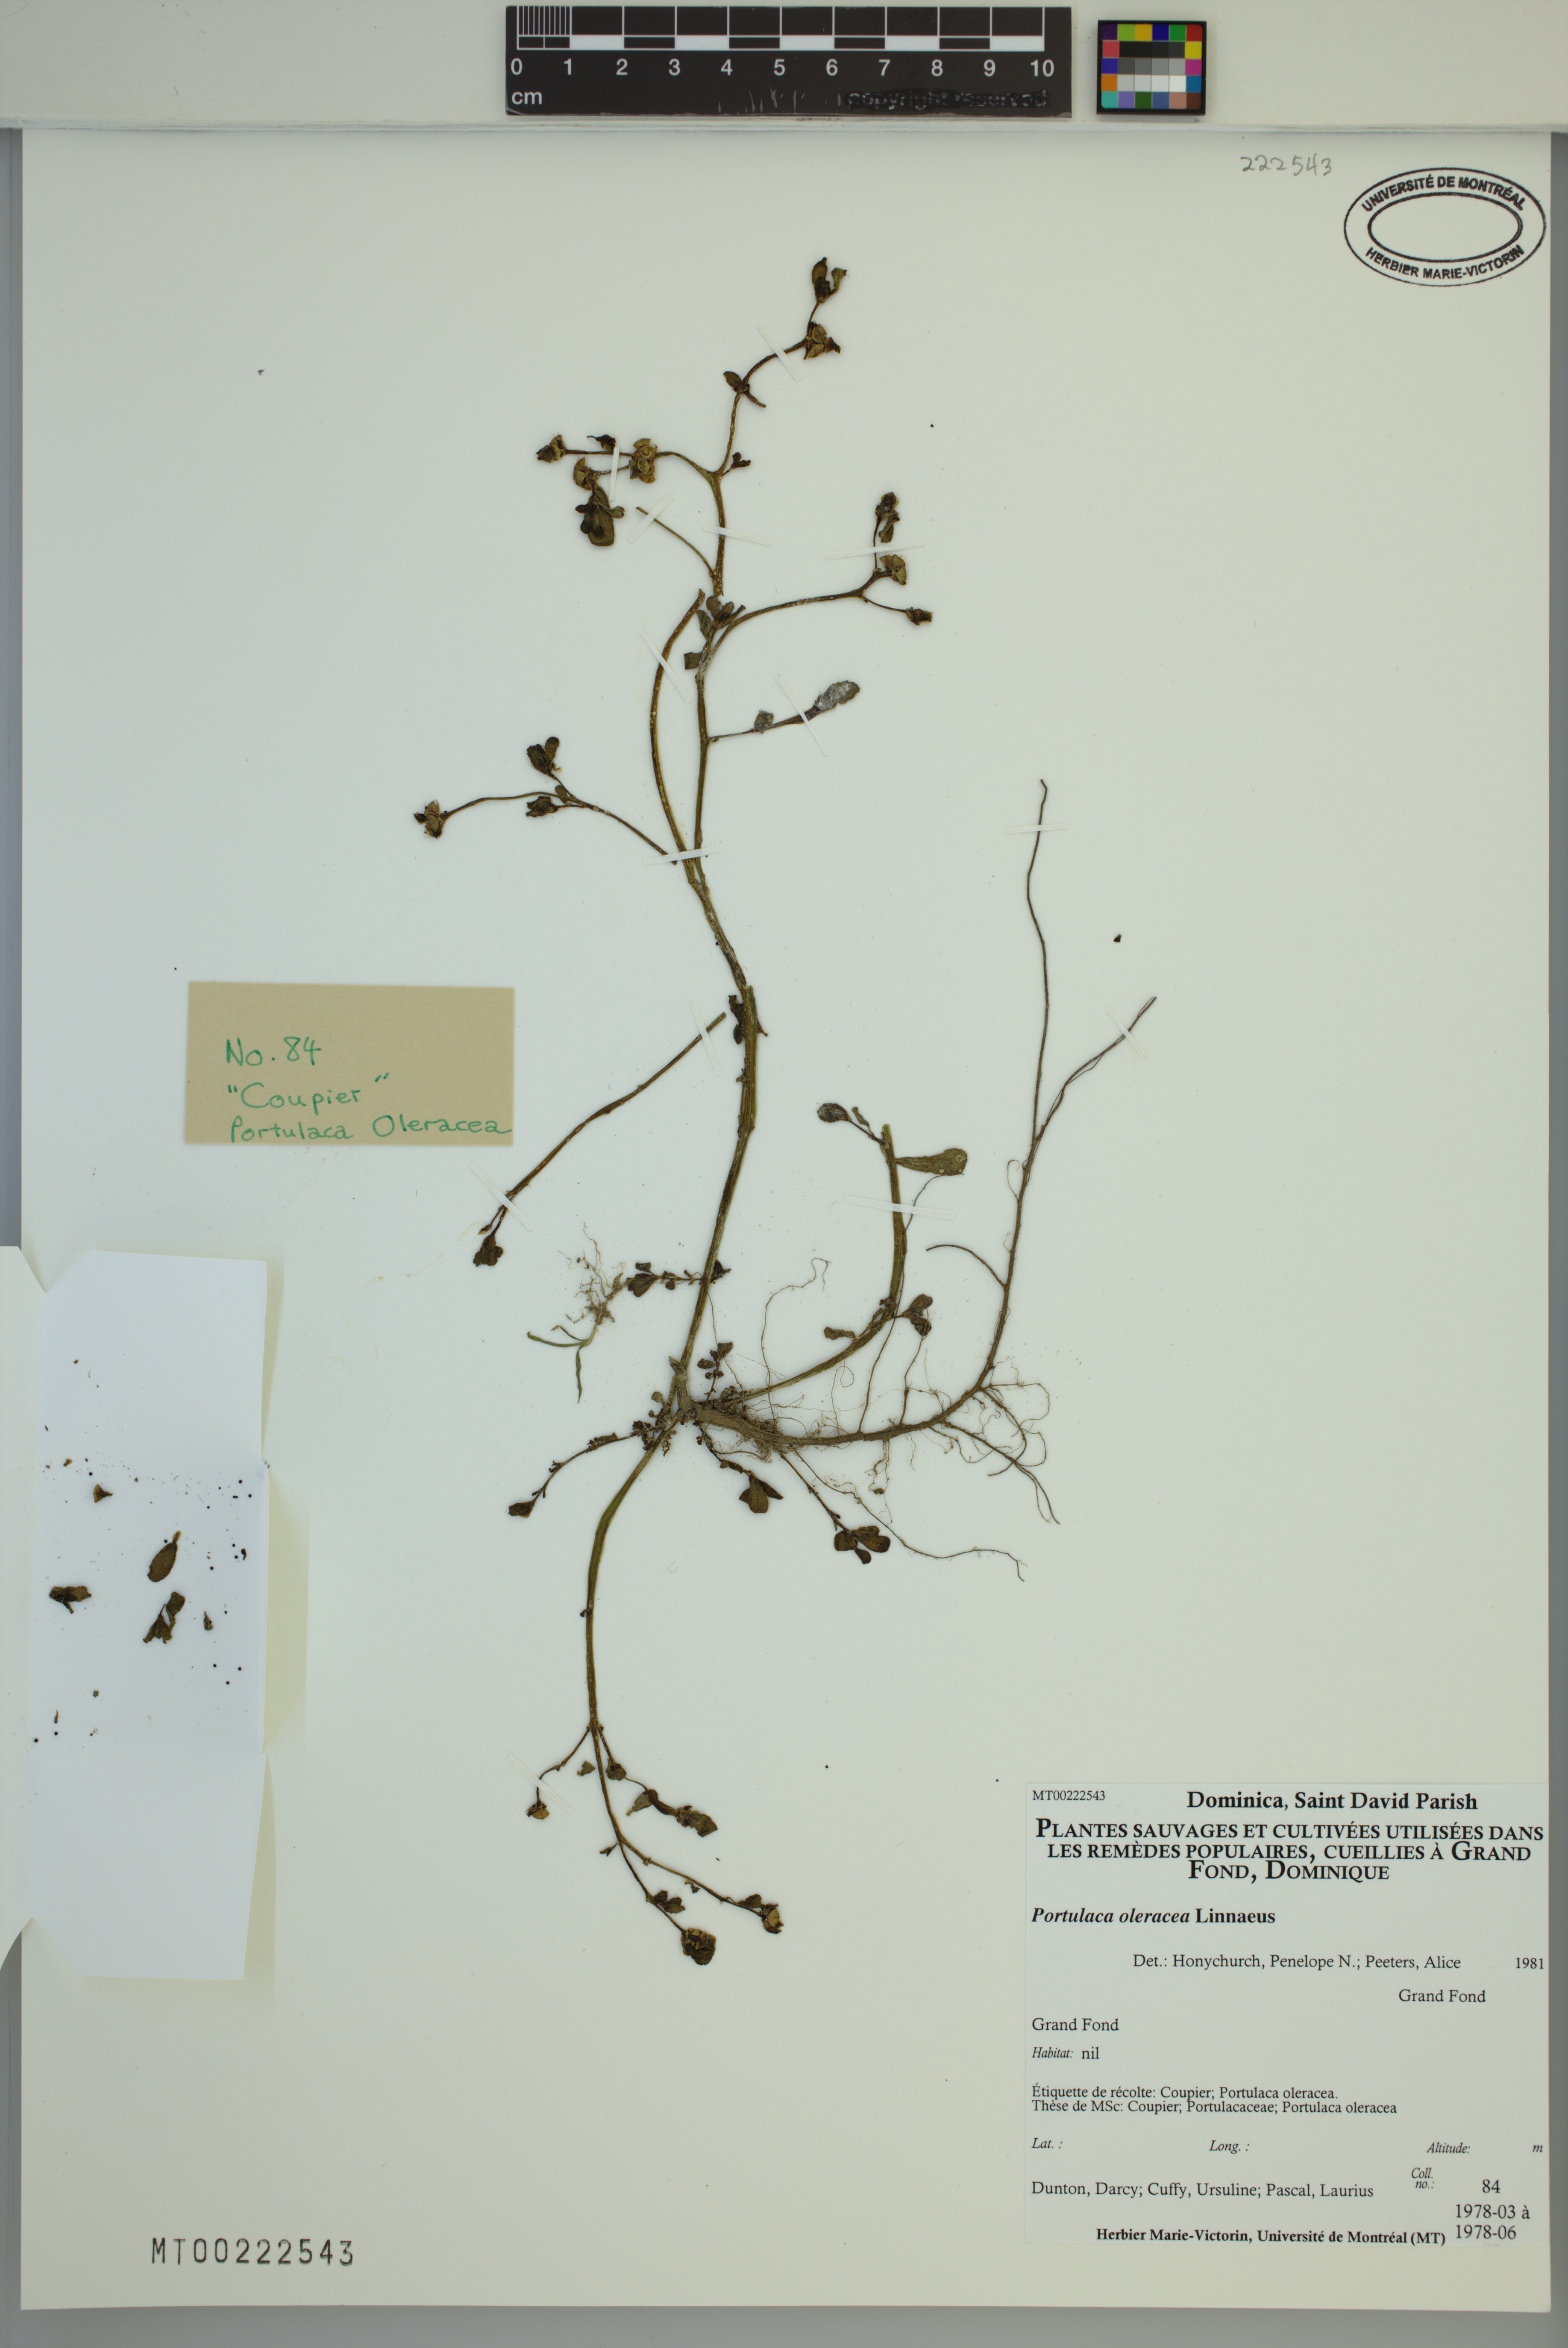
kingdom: Plantae
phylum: Tracheophyta
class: Magnoliopsida
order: Caryophyllales
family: Portulacaceae
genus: Portulaca
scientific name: Portulaca oleracea
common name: Common purslane
